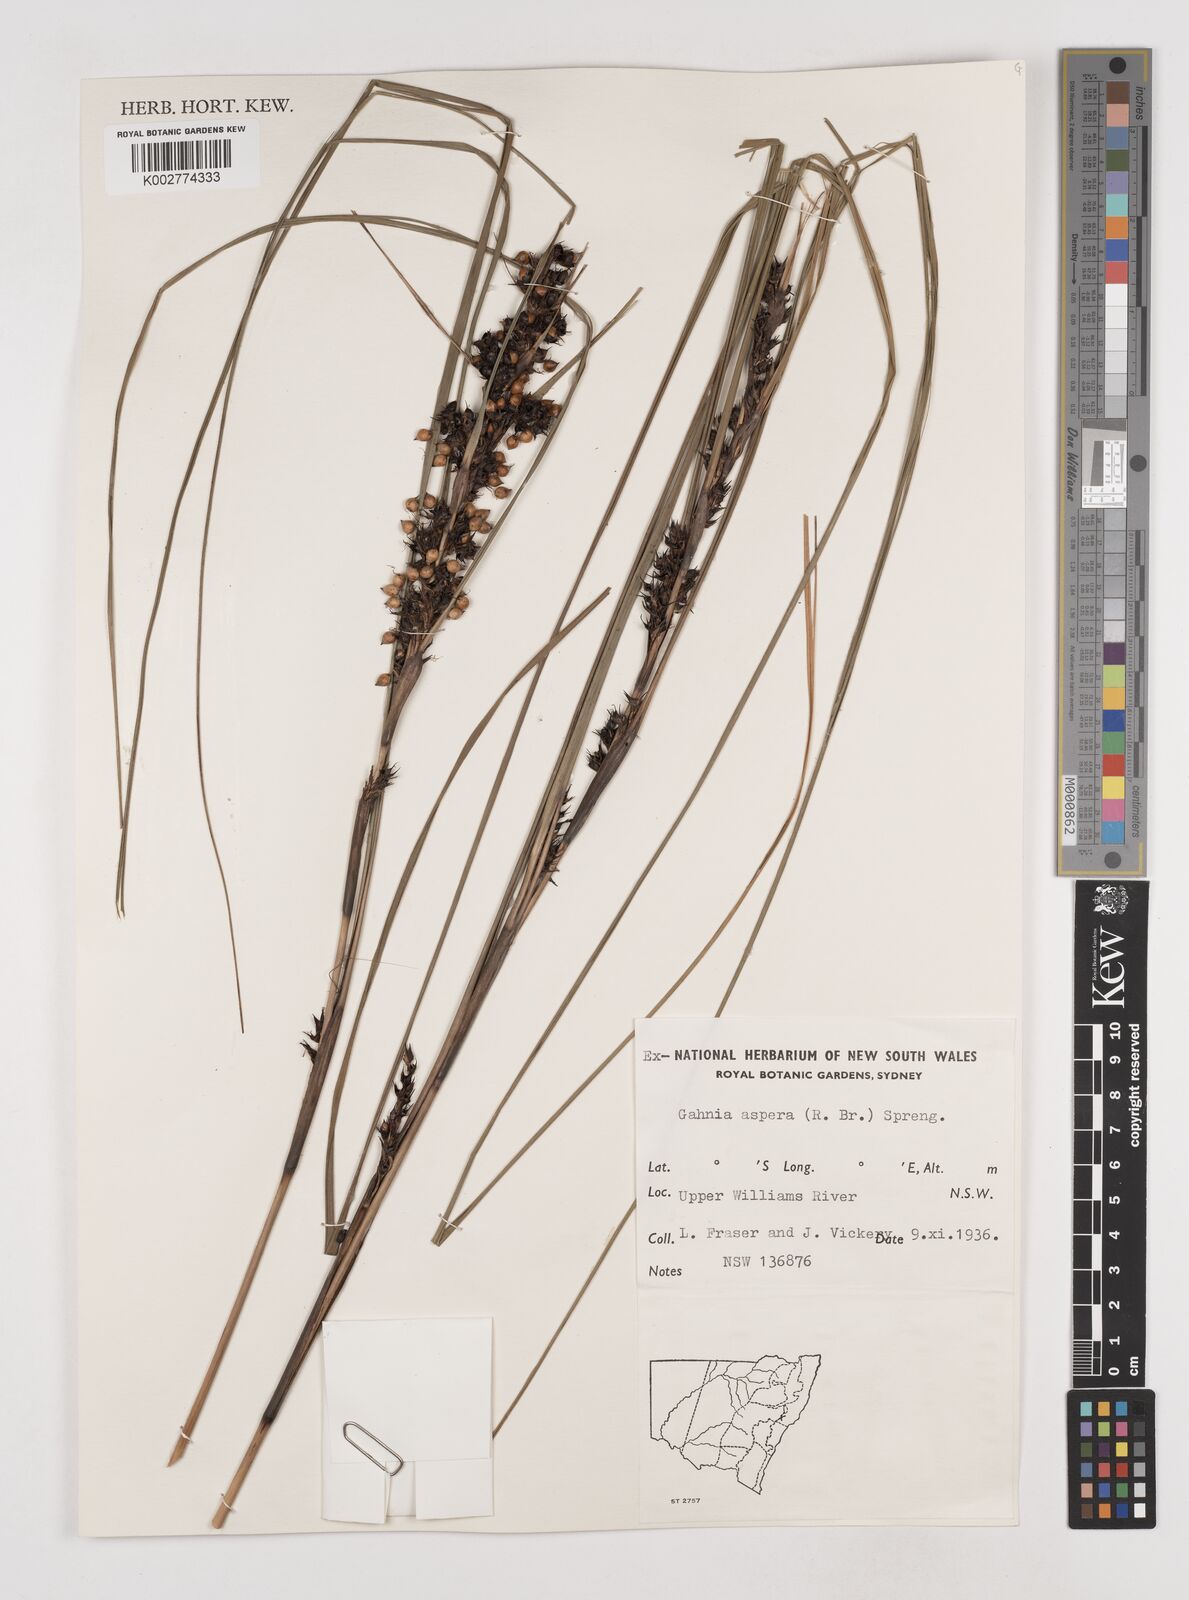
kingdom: Plantae
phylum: Tracheophyta
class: Liliopsida
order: Poales
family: Cyperaceae
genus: Gahnia
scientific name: Gahnia aspera
